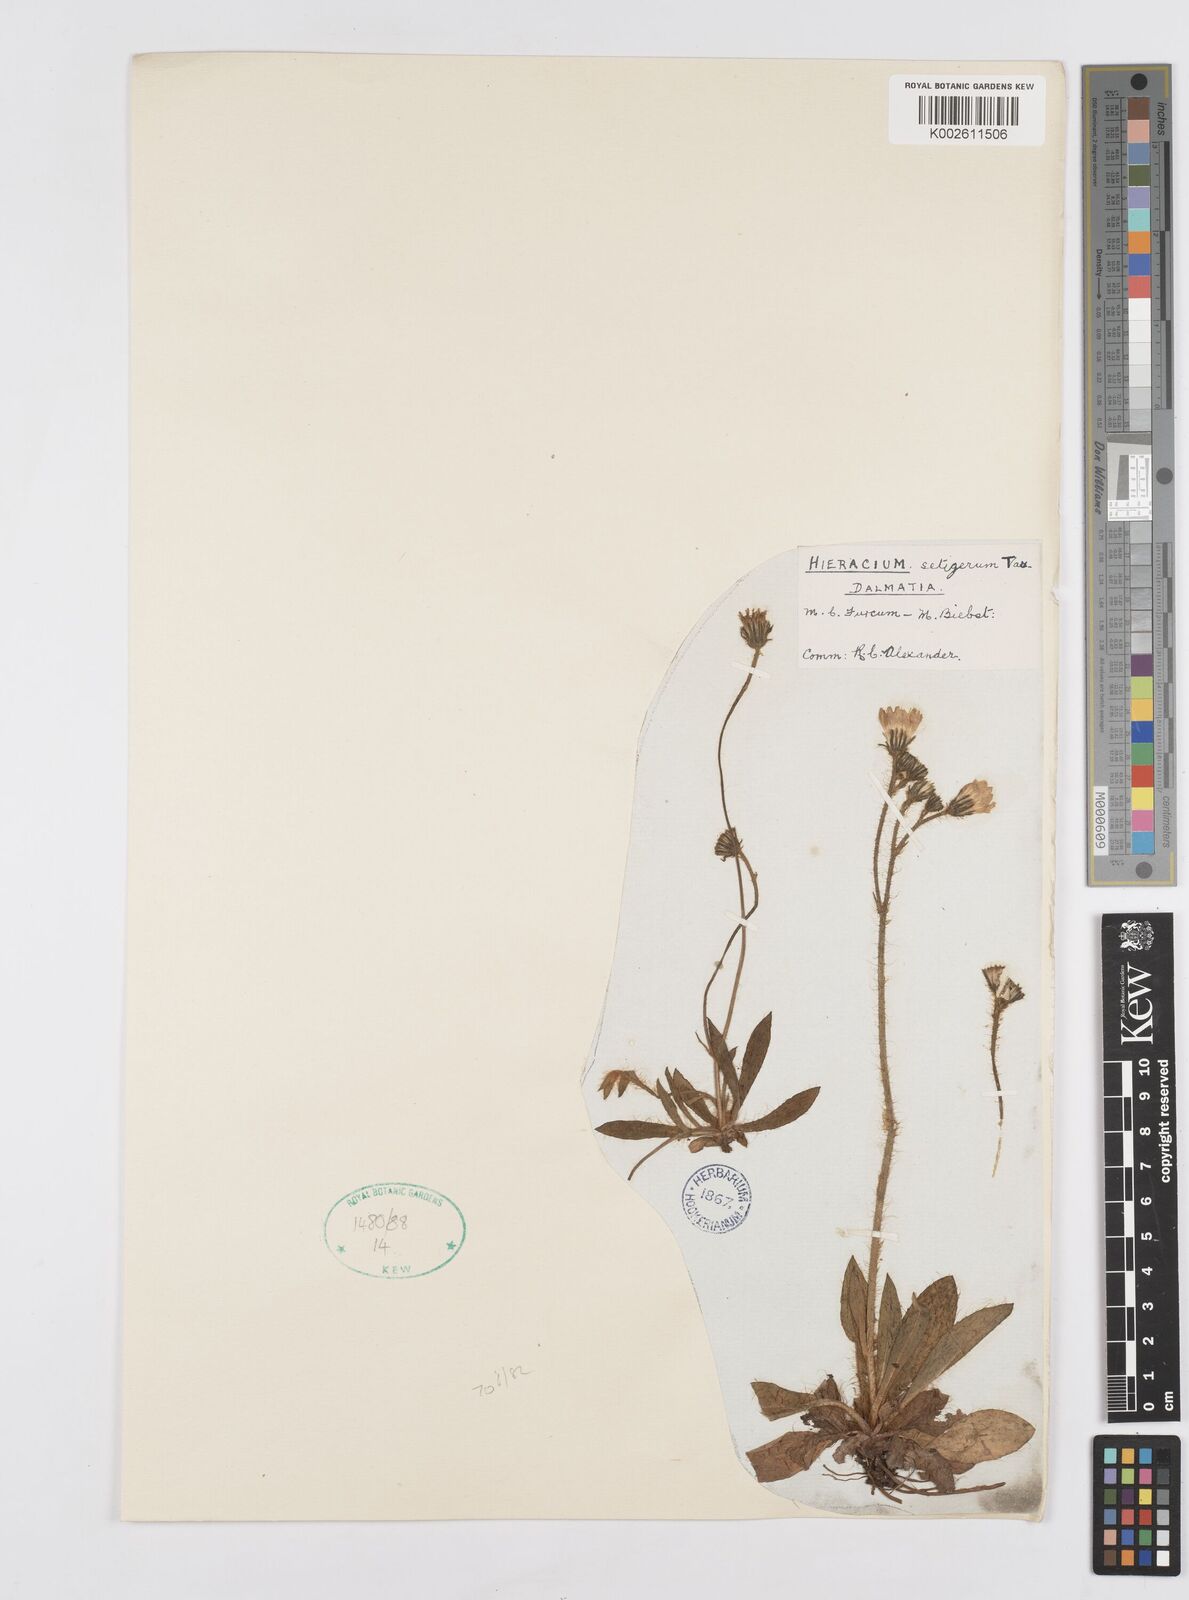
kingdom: Plantae
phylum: Tracheophyta
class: Magnoliopsida
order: Asterales
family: Asteraceae
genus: Pilosella
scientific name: Pilosella acutifolia
